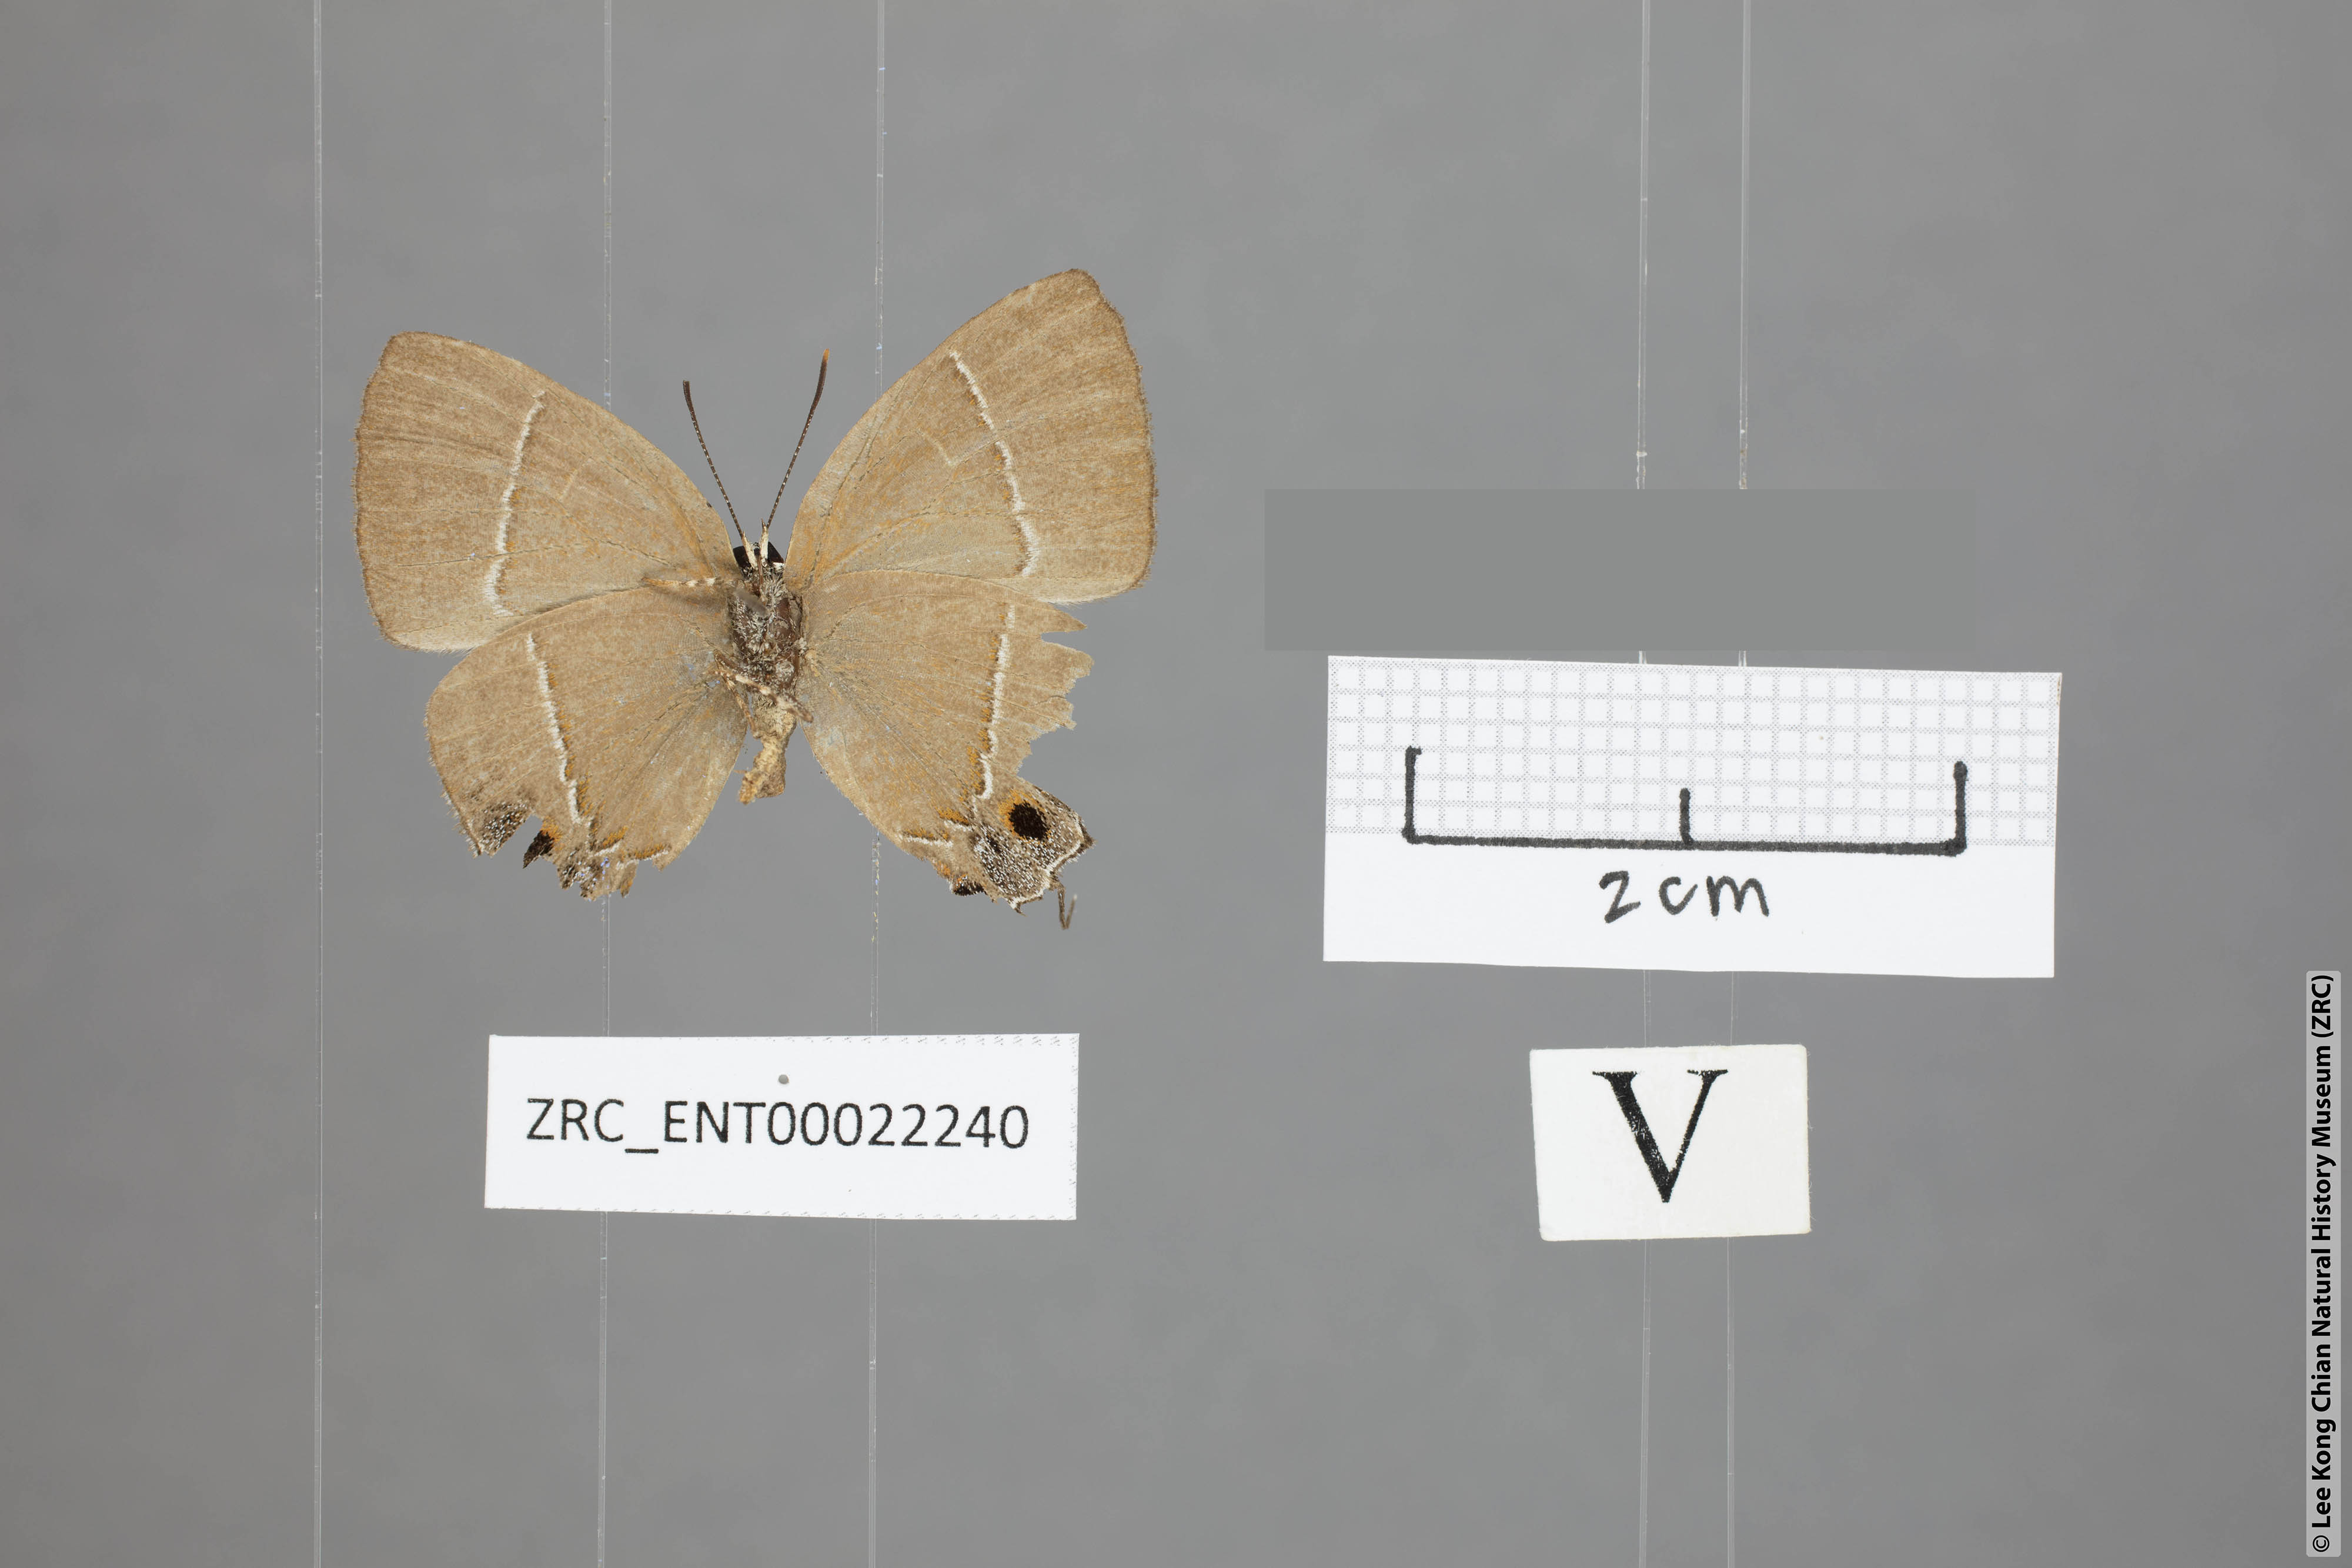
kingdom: Animalia
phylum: Arthropoda
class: Insecta
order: Lepidoptera
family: Lycaenidae
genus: Tajuria
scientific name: Tajuria yajna
